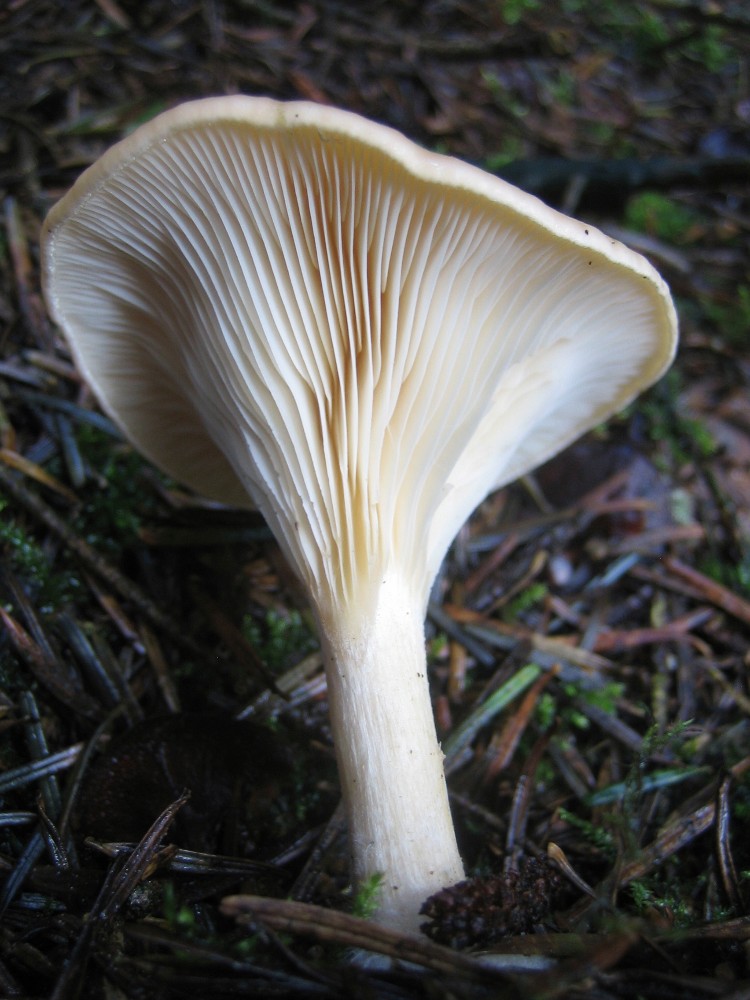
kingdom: Fungi
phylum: Basidiomycota
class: Agaricomycetes
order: Agaricales
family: Tricholomataceae
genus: Paralepista
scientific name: Paralepista flaccida
